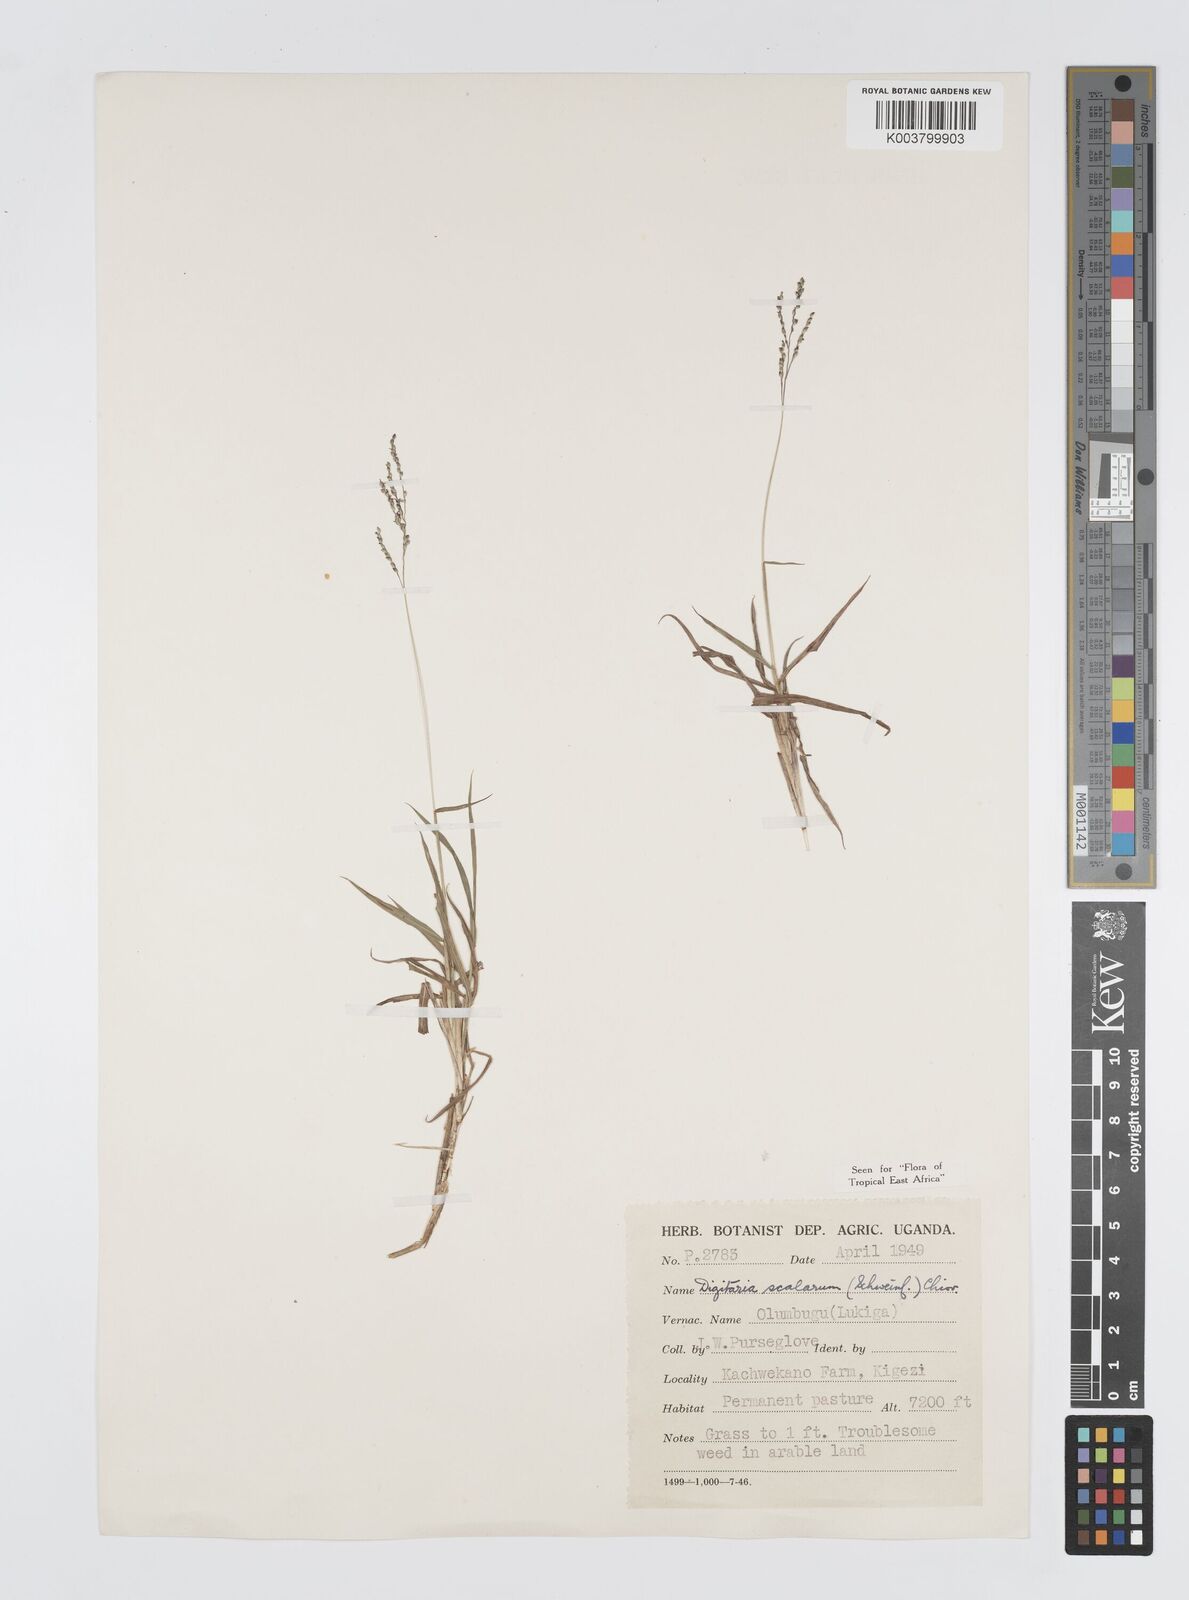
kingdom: Plantae
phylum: Tracheophyta
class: Liliopsida
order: Poales
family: Poaceae
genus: Digitaria
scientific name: Digitaria abyssinica
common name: African couchgrass
